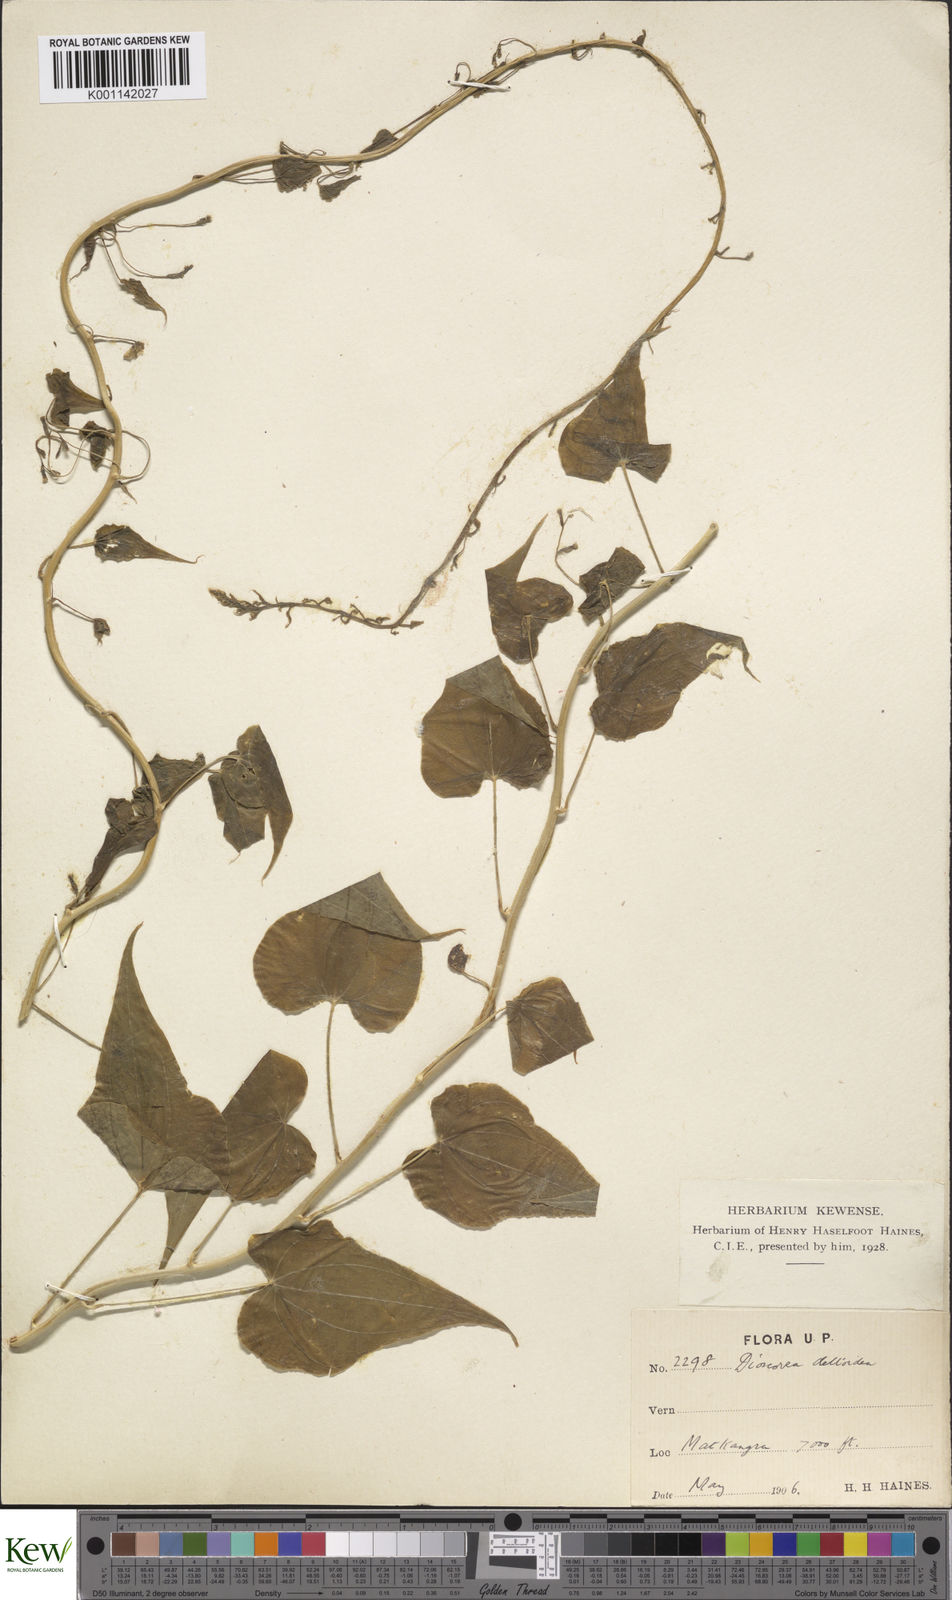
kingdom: Plantae
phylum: Tracheophyta
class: Liliopsida
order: Dioscoreales
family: Dioscoreaceae
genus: Dioscorea
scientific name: Dioscorea deltoidea
